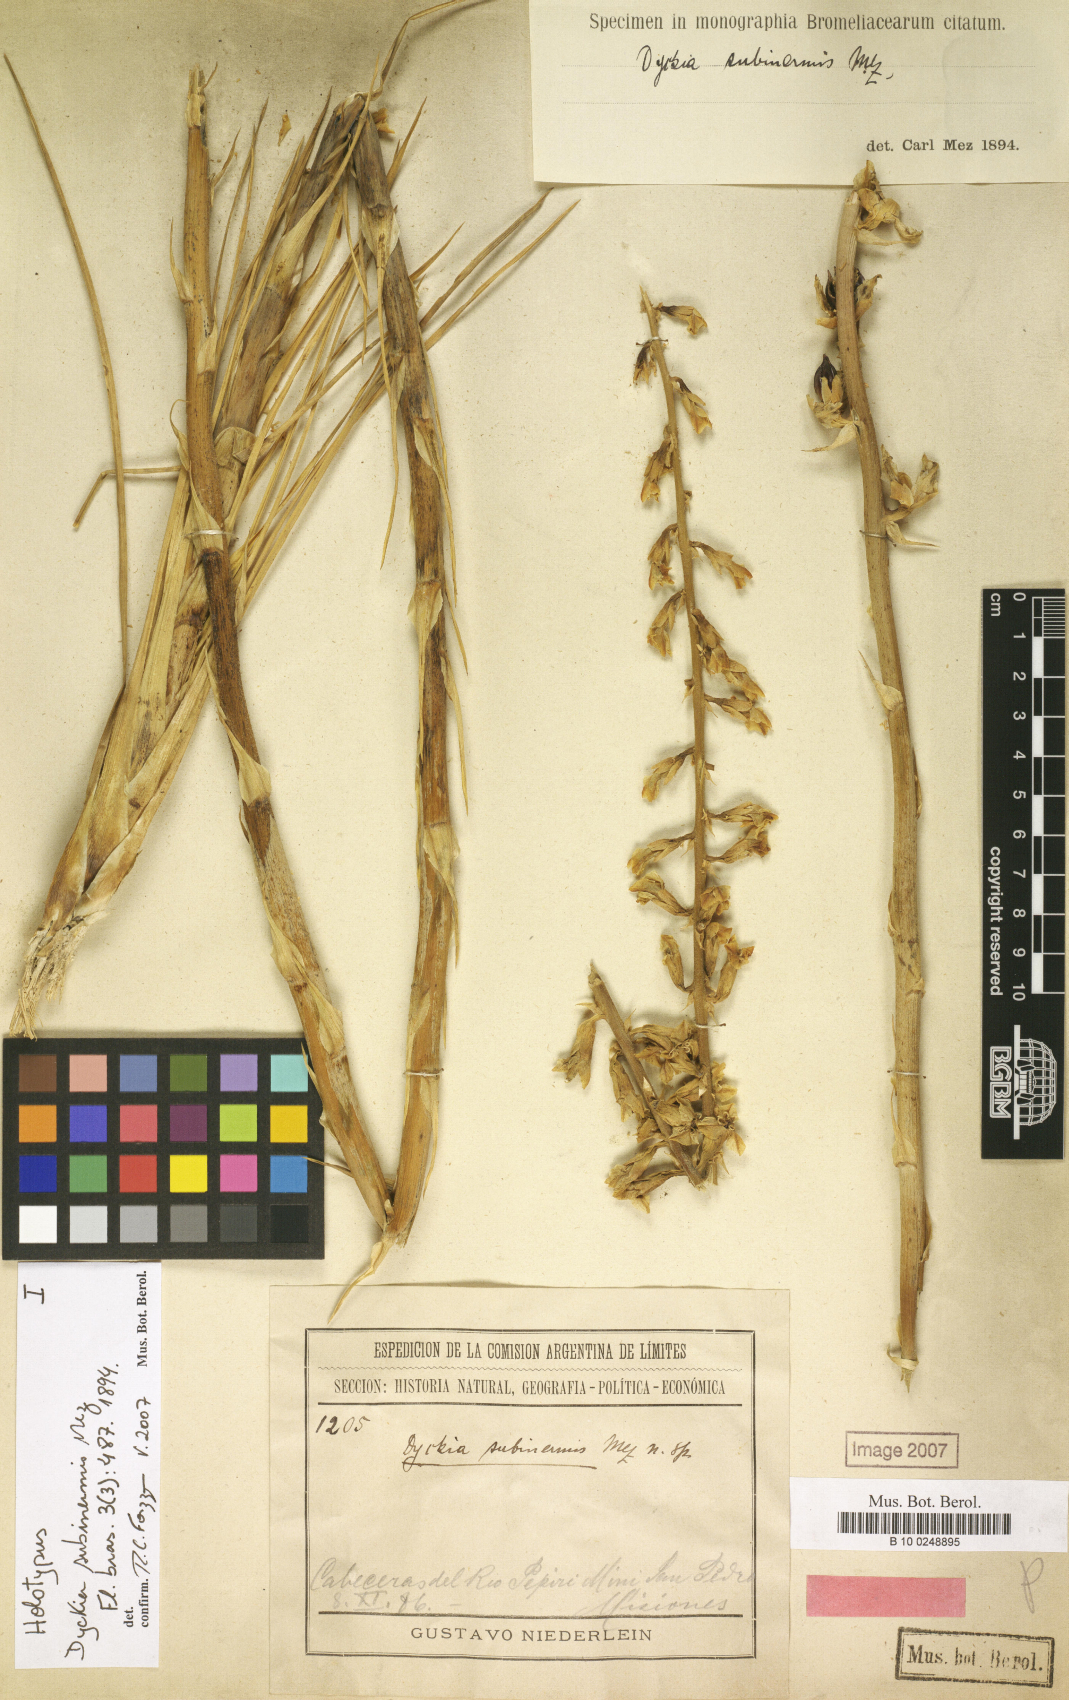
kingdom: Plantae
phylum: Tracheophyta
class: Liliopsida
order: Poales
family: Bromeliaceae
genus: Dyckia
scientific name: Dyckia subinermis
